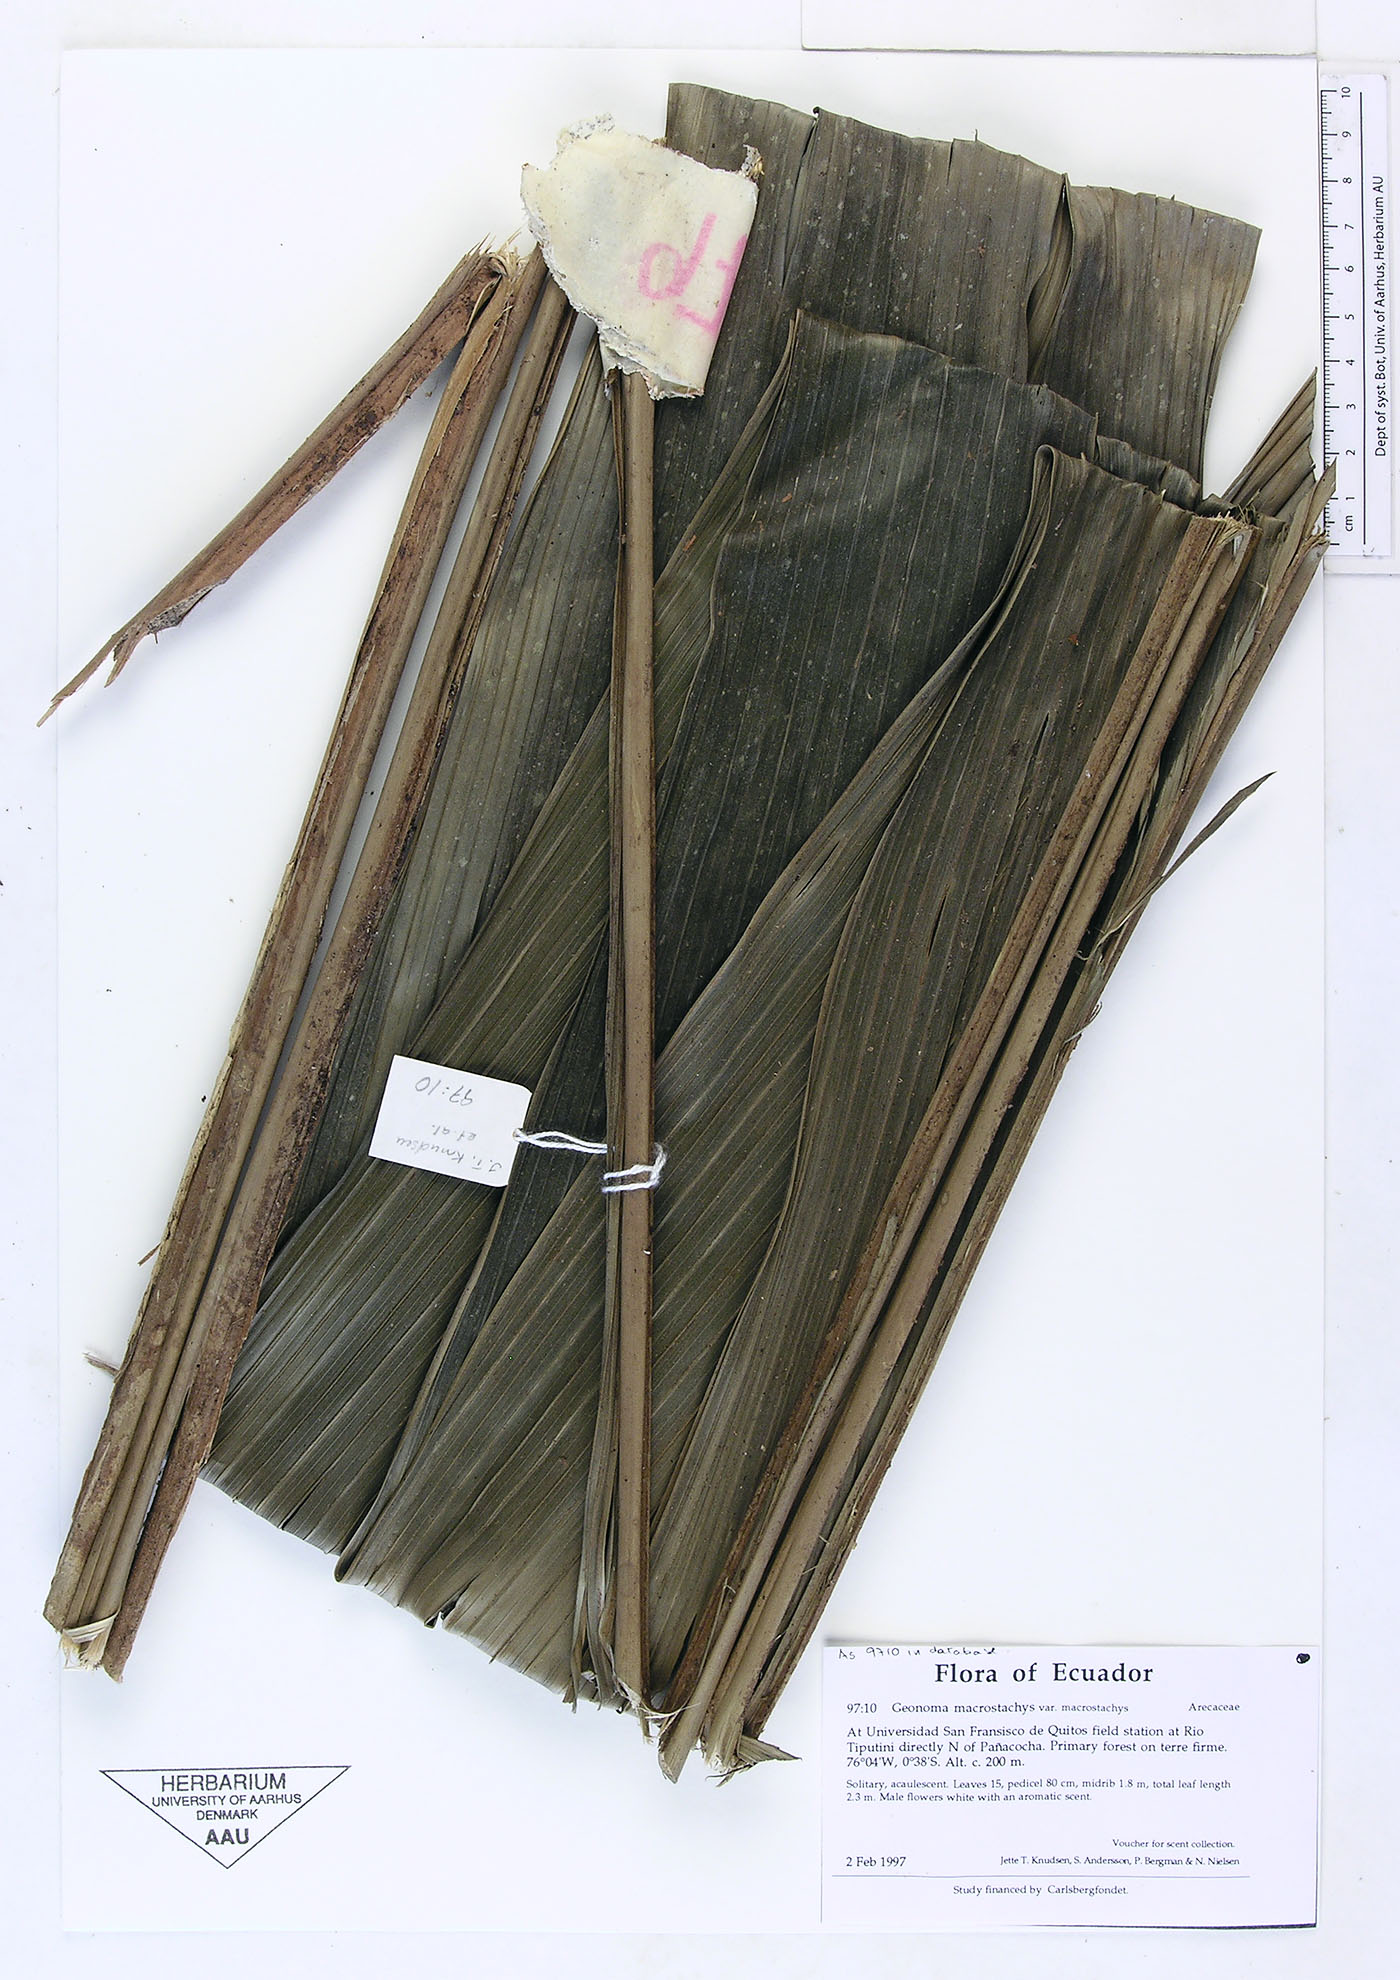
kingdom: Plantae
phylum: Tracheophyta
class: Liliopsida
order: Arecales
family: Arecaceae
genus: Geonoma
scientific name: Geonoma macrostachys
